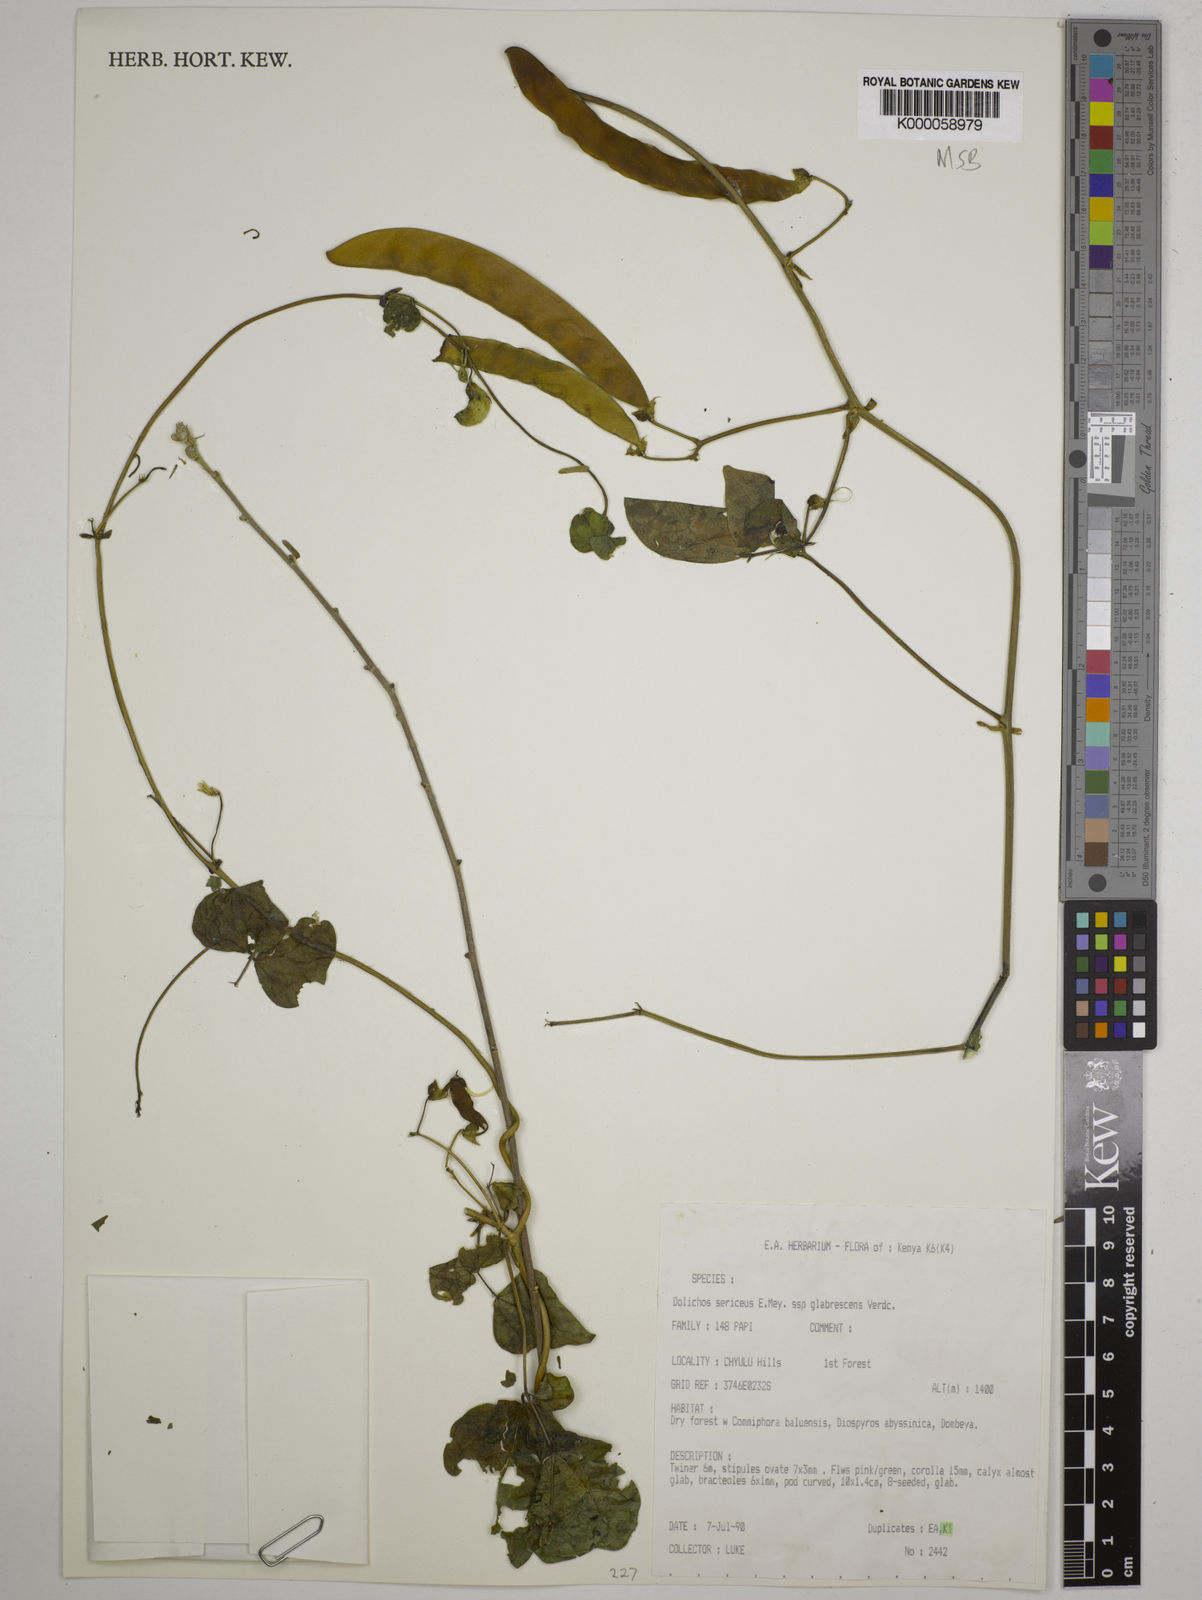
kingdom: Plantae
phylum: Tracheophyta
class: Magnoliopsida
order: Fabales
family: Fabaceae
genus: Dolichos
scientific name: Dolichos sericeus
